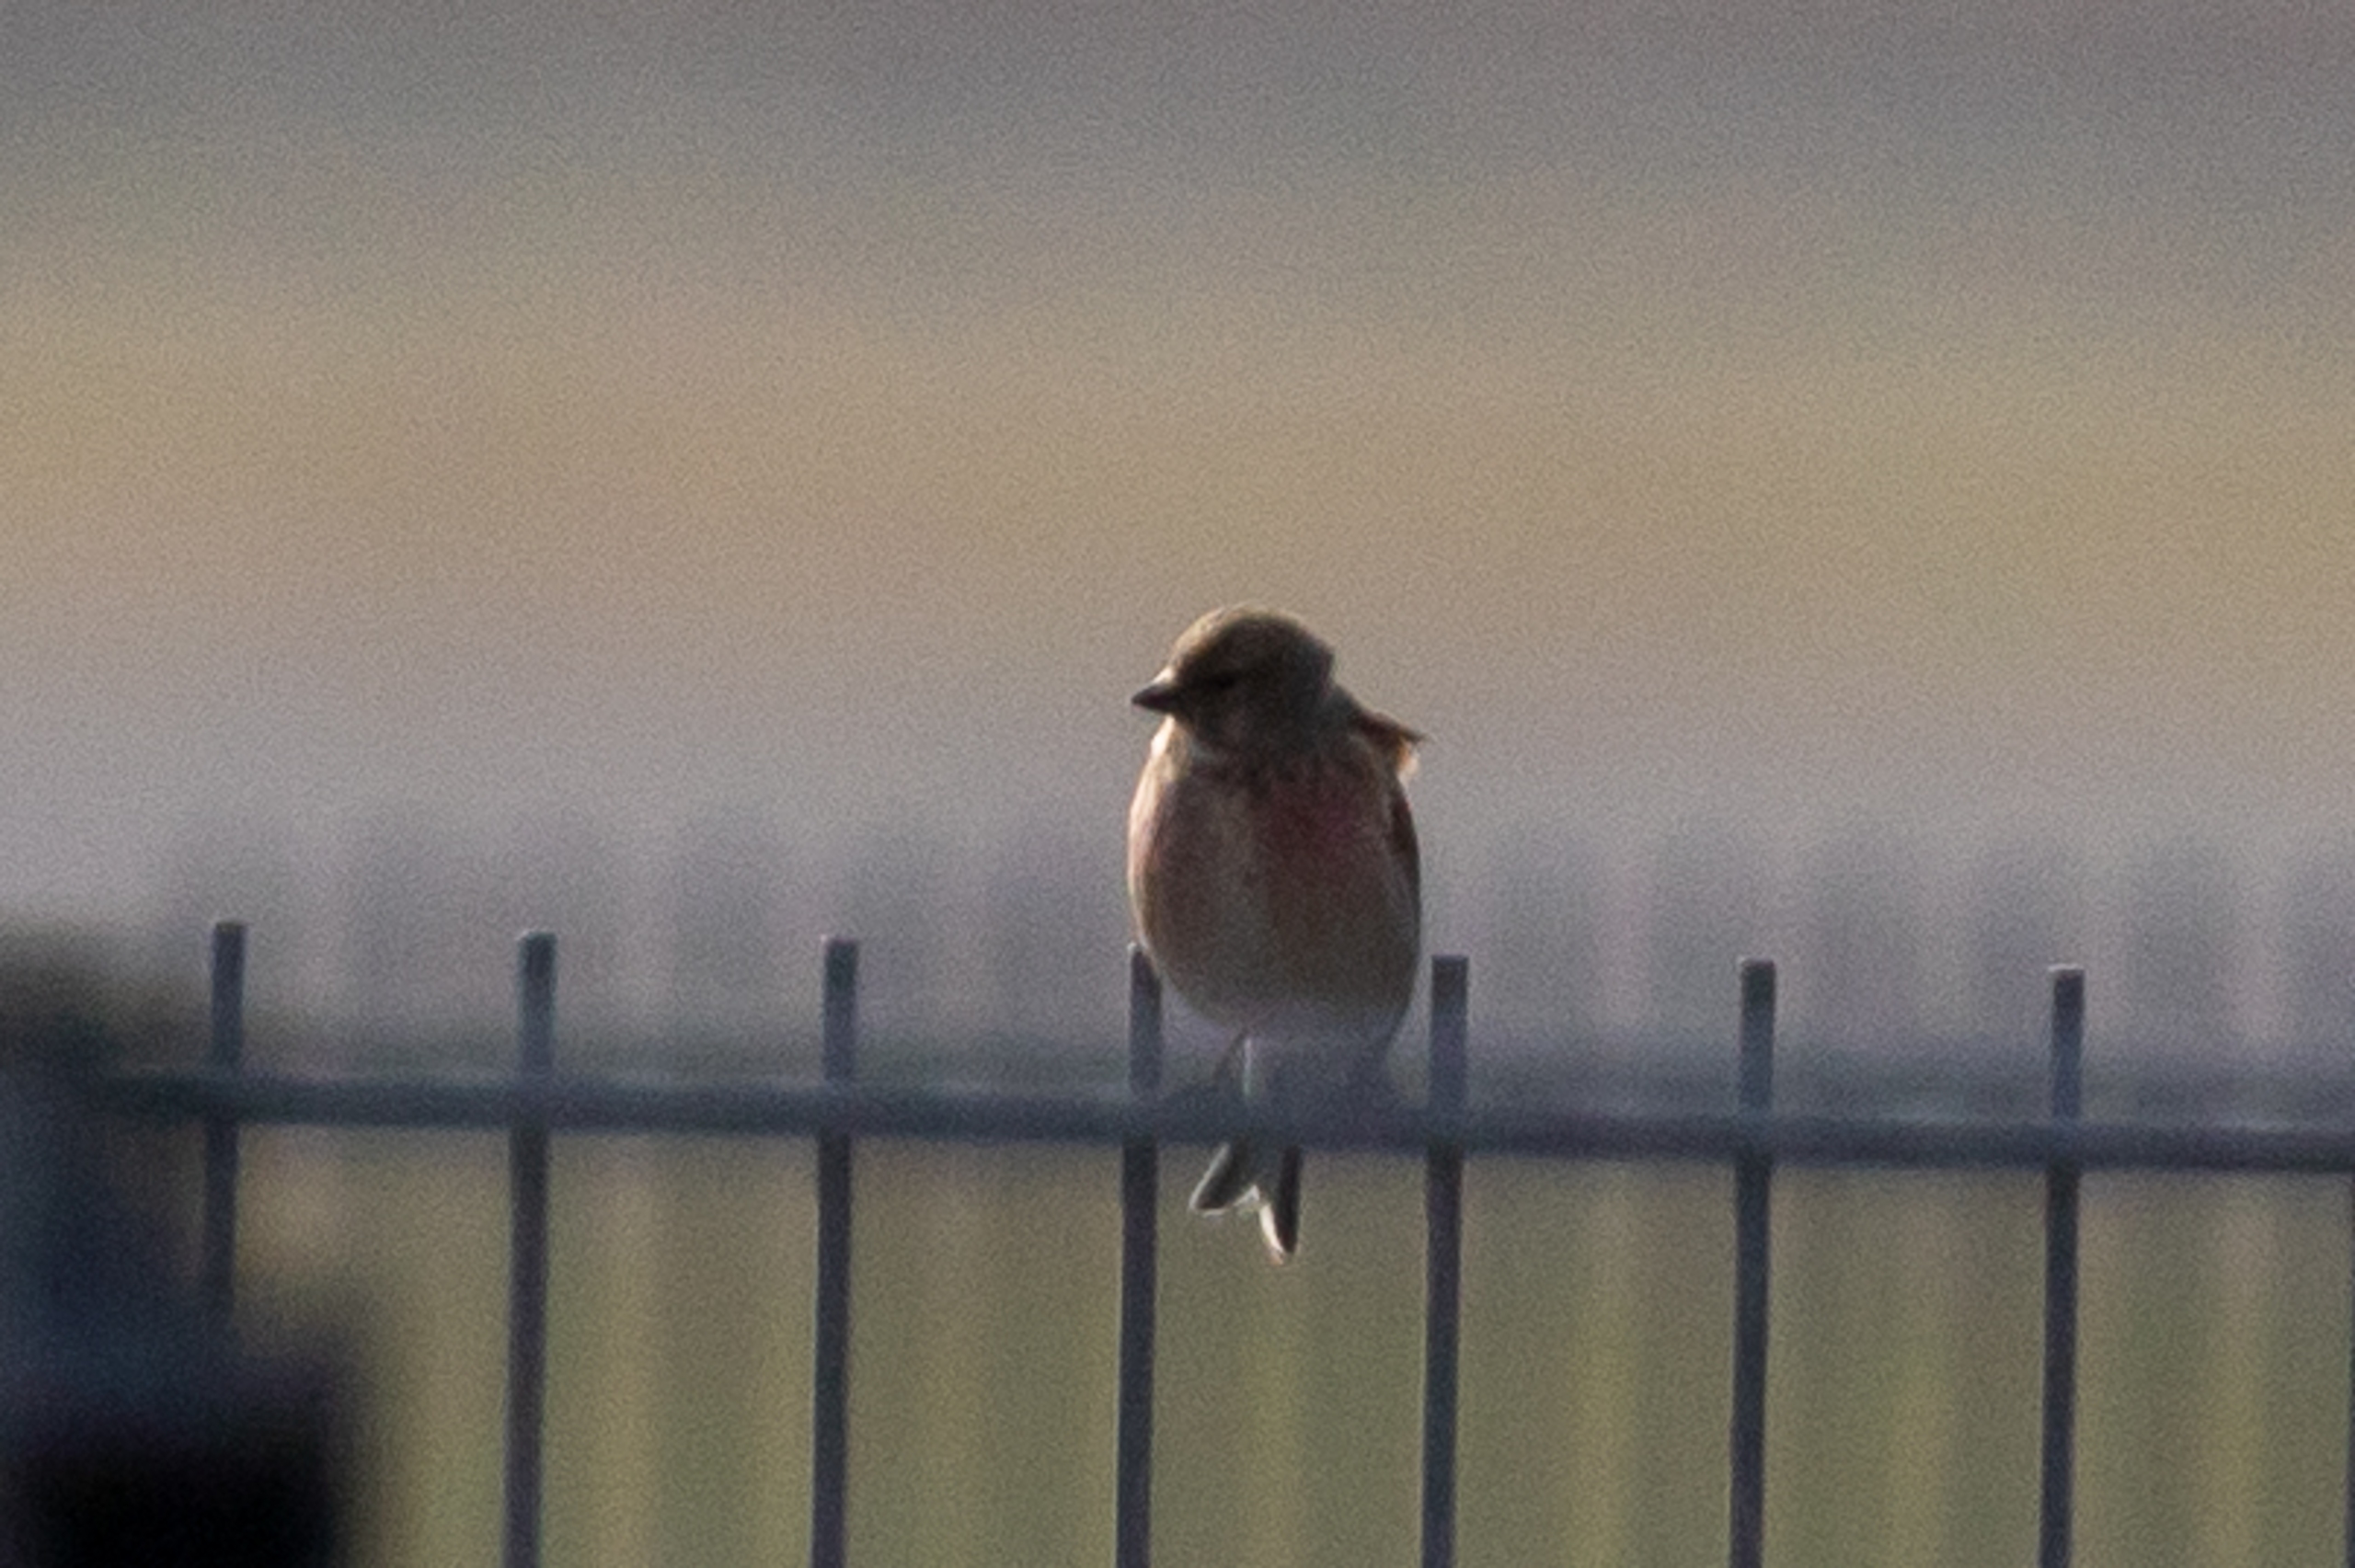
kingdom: Animalia
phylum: Chordata
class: Aves
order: Passeriformes
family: Fringillidae
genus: Linaria
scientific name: Linaria cannabina
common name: Tornirisk
